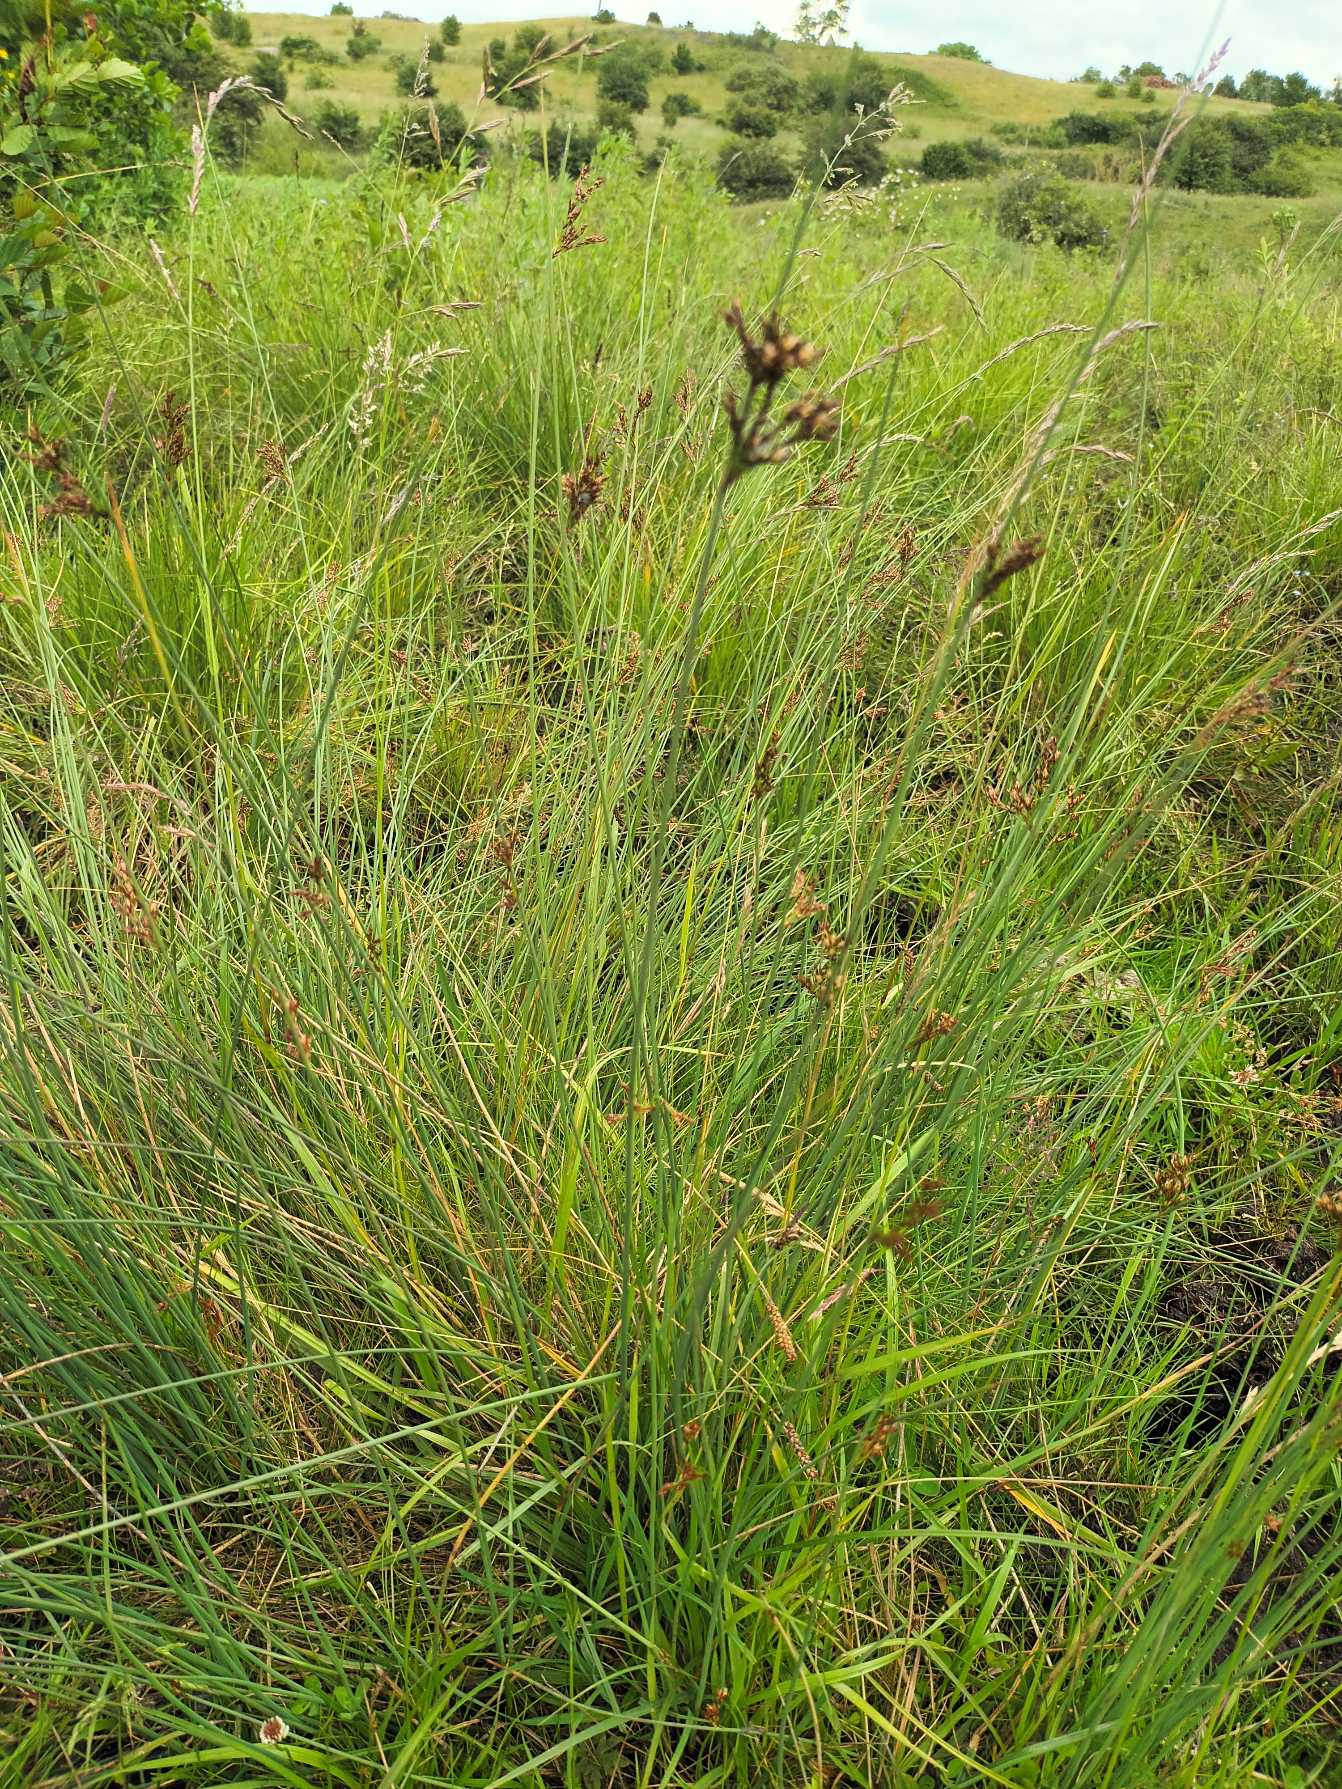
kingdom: Plantae
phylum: Tracheophyta
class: Liliopsida
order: Poales
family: Juncaceae
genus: Juncus
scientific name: Juncus inflexus
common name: Blågrå siv
